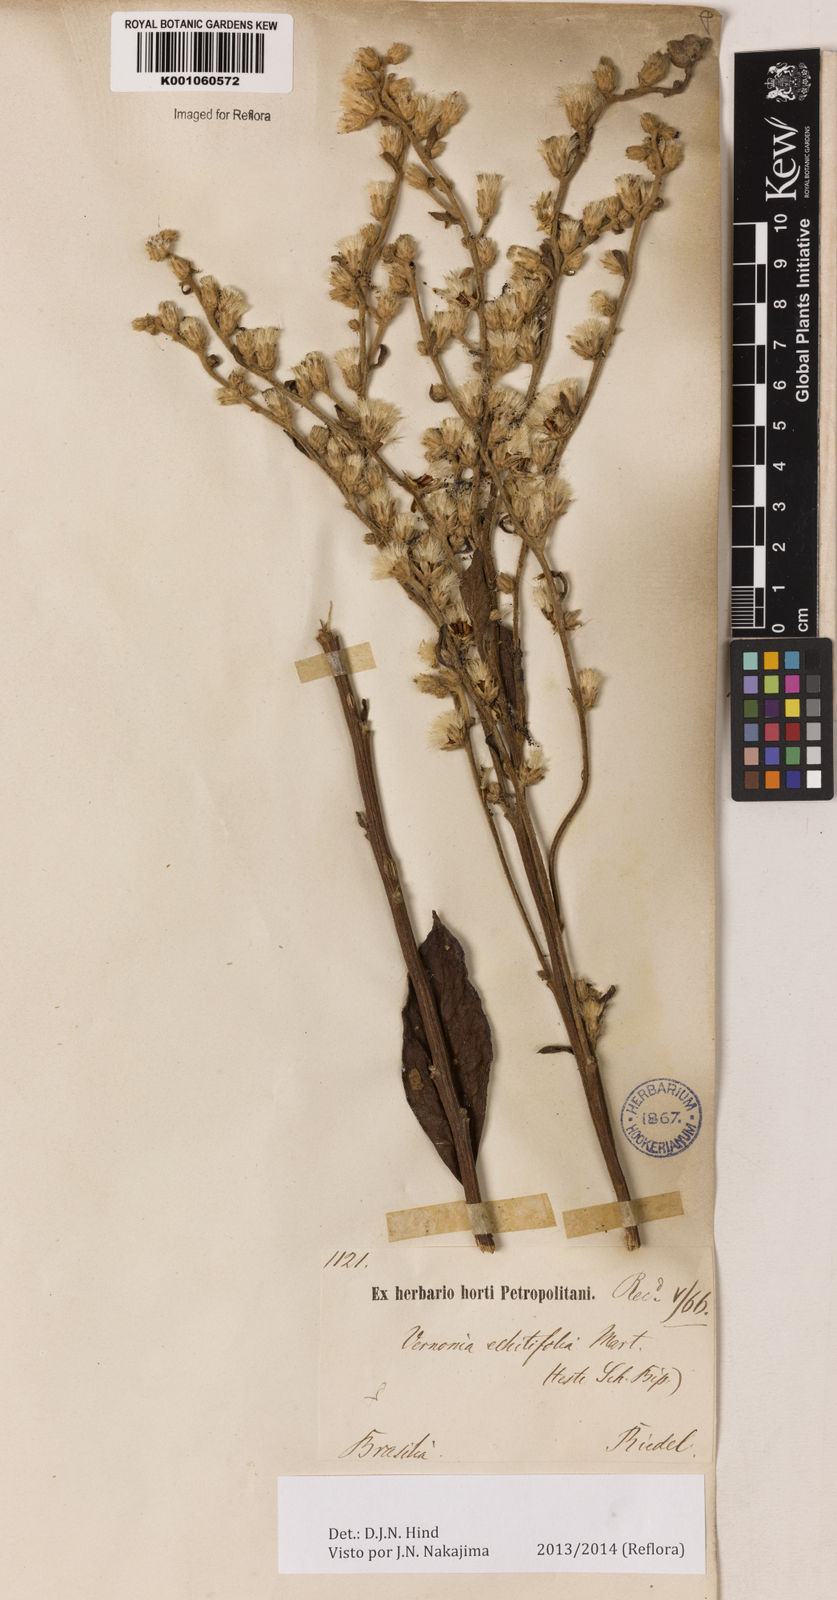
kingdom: Plantae
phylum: Tracheophyta
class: Magnoliopsida
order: Asterales
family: Asteraceae
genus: Acilepidopsis
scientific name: Acilepidopsis echitifolia
